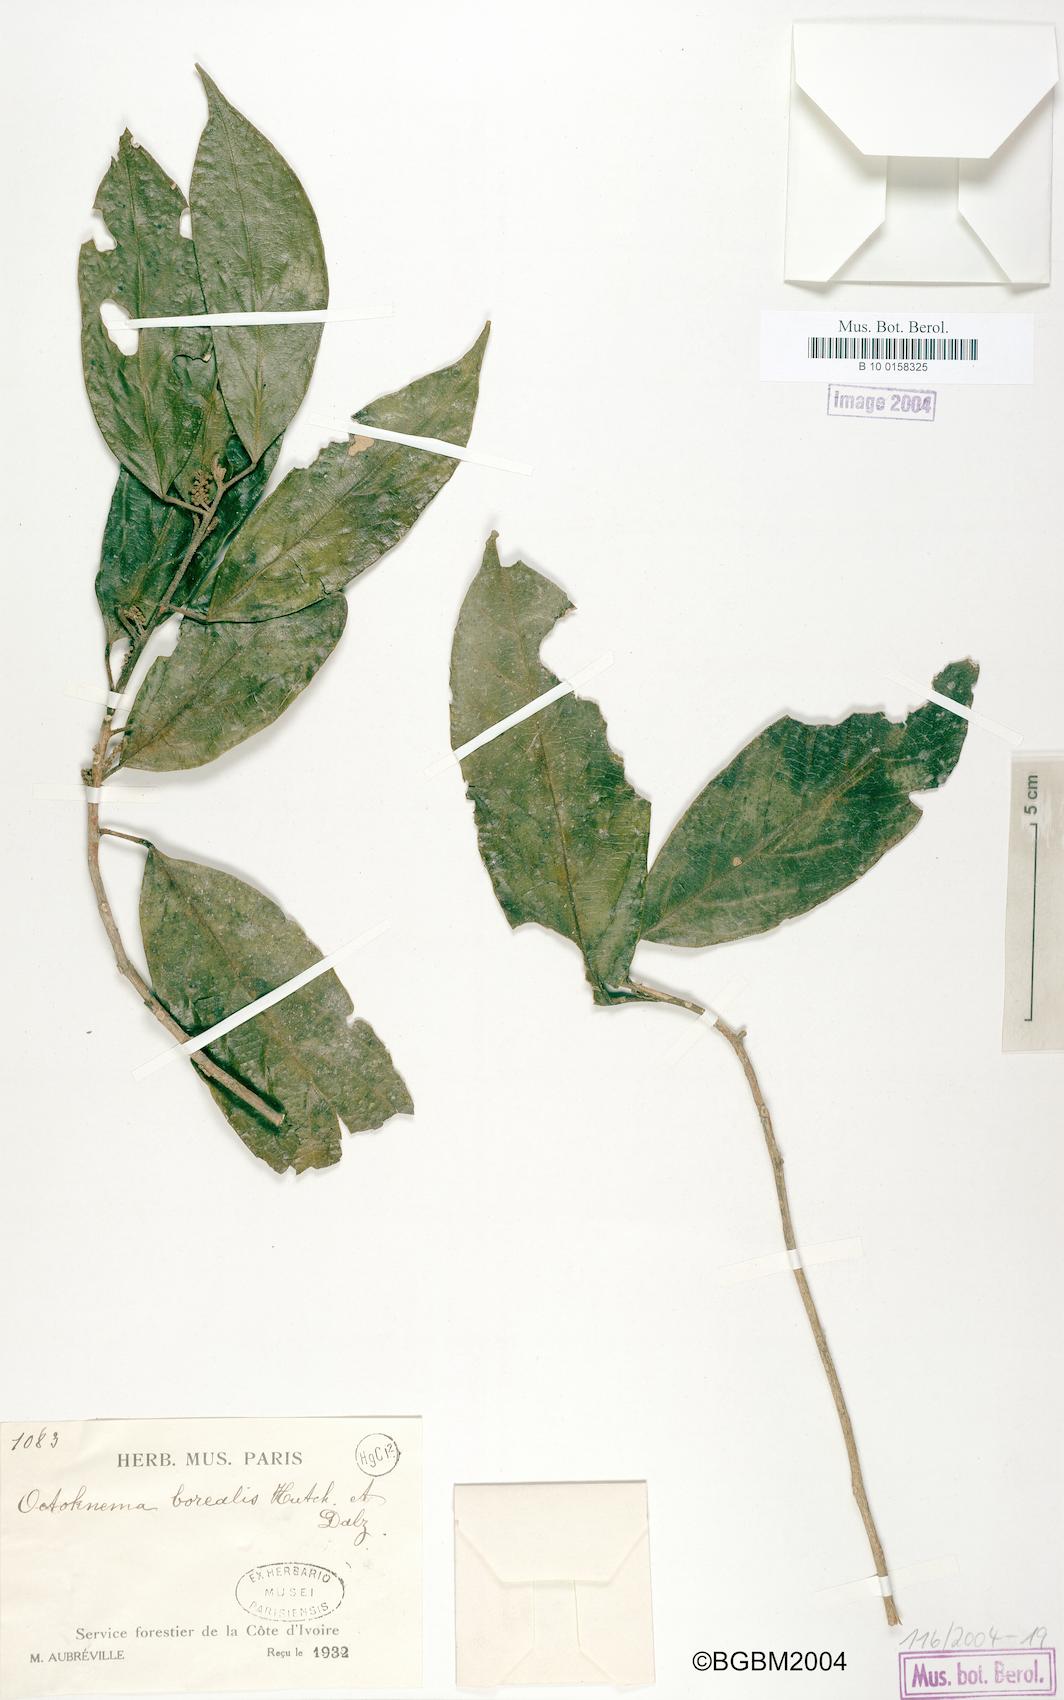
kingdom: Plantae
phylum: Tracheophyta
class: Magnoliopsida
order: Santalales
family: Octoknemaceae
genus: Octoknema
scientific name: Octoknema borealis
